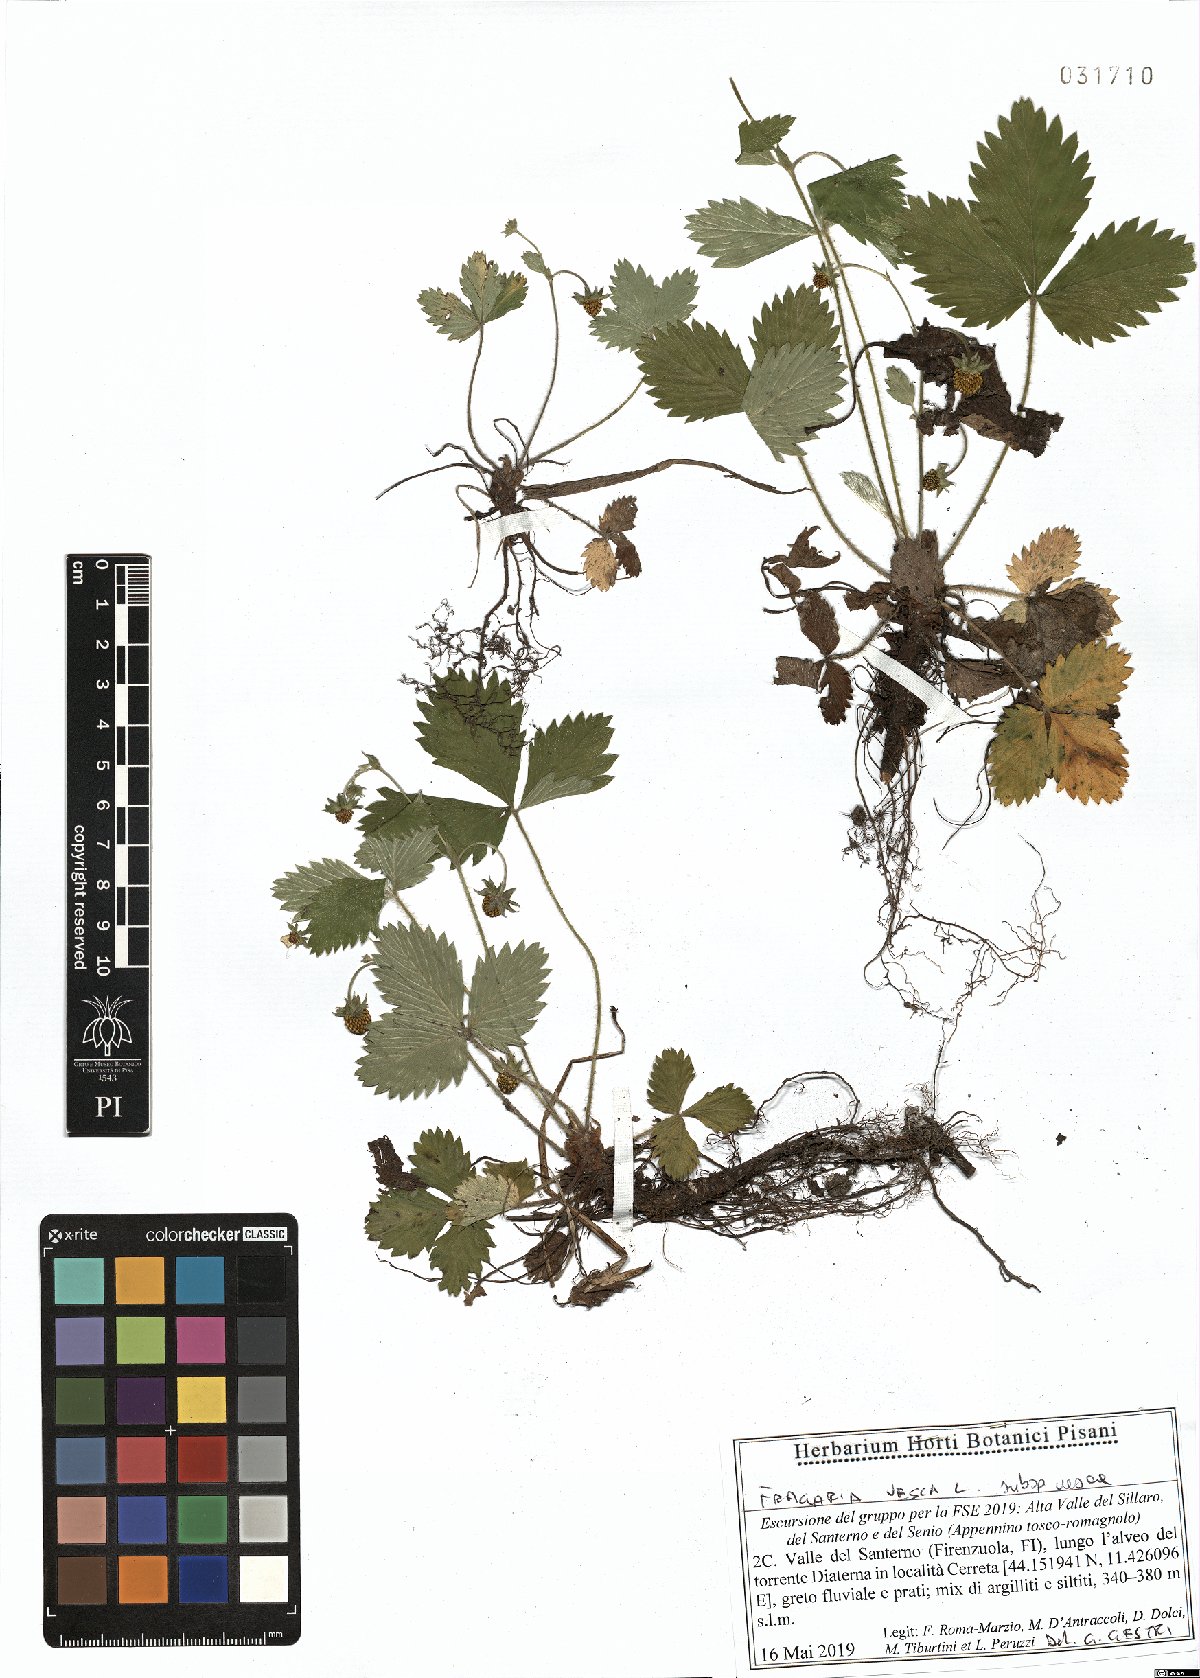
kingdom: Plantae
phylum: Tracheophyta
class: Magnoliopsida
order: Rosales
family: Rosaceae
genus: Fragaria
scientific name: Fragaria vesca
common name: Wild strawberry
